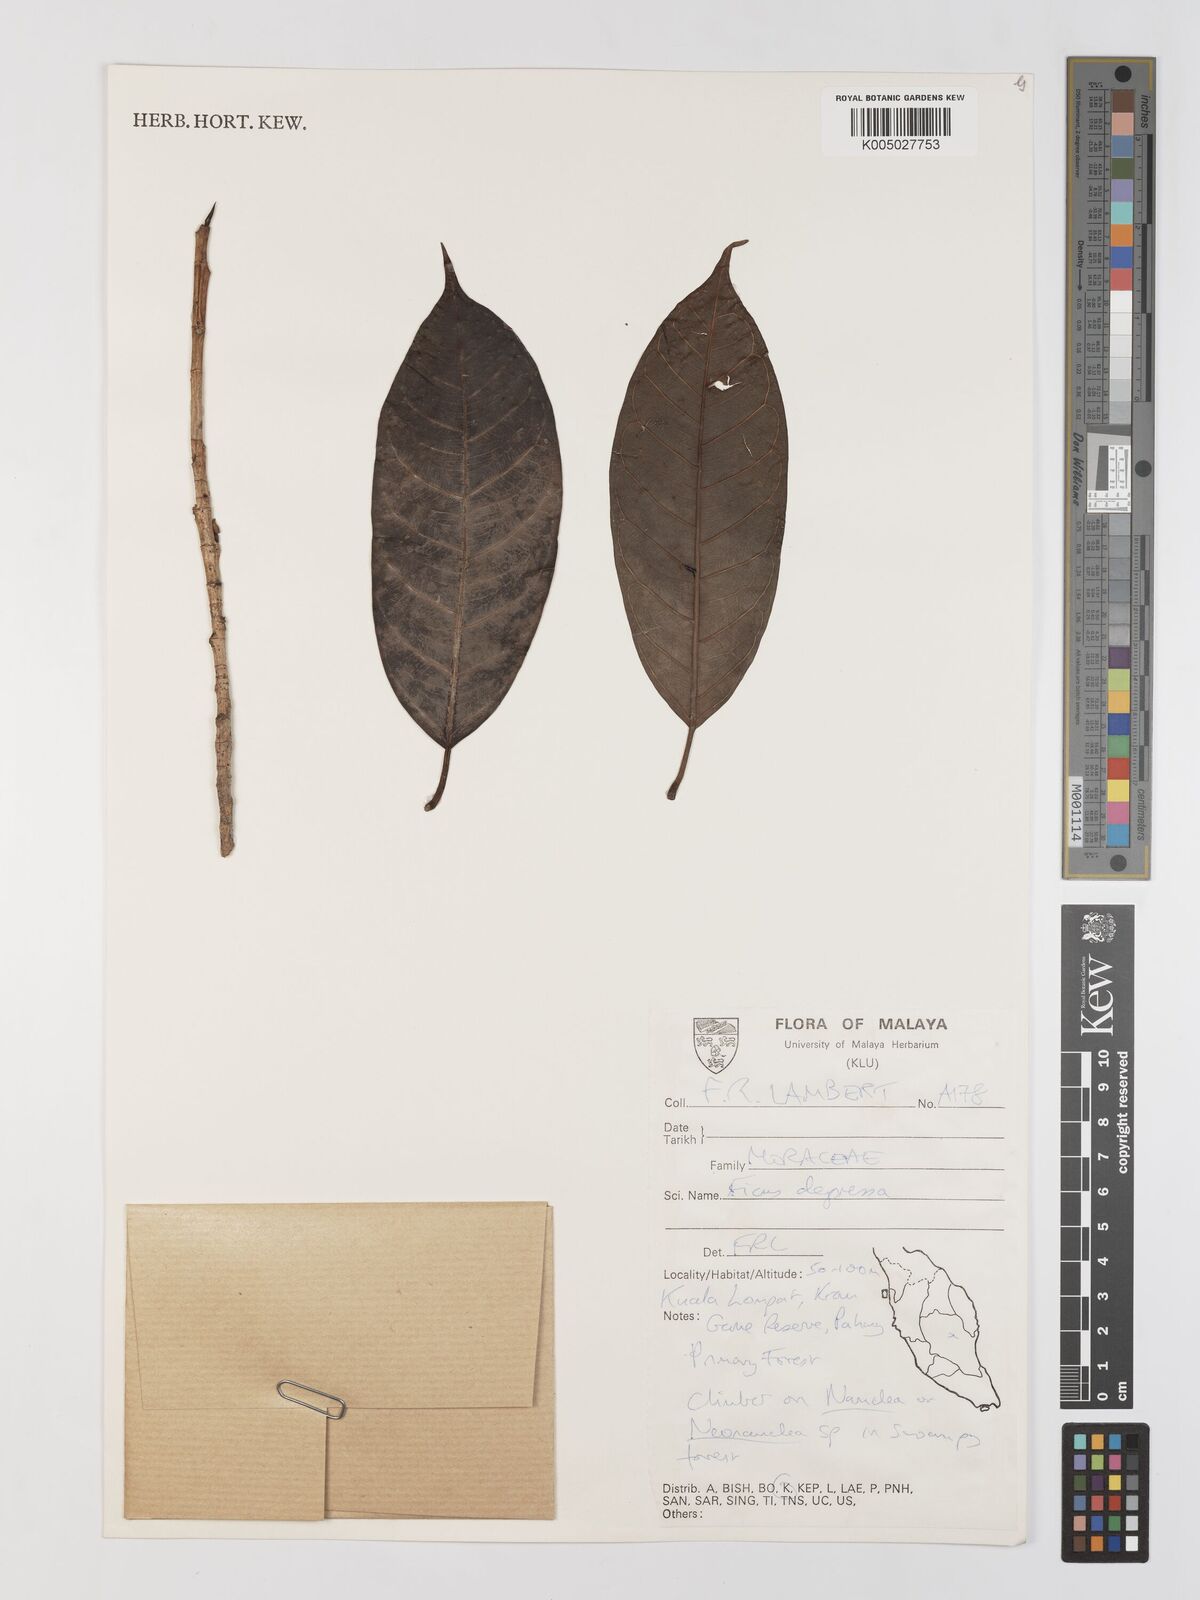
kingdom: Plantae
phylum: Tracheophyta
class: Magnoliopsida
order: Rosales
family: Moraceae
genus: Ficus
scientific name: Ficus
